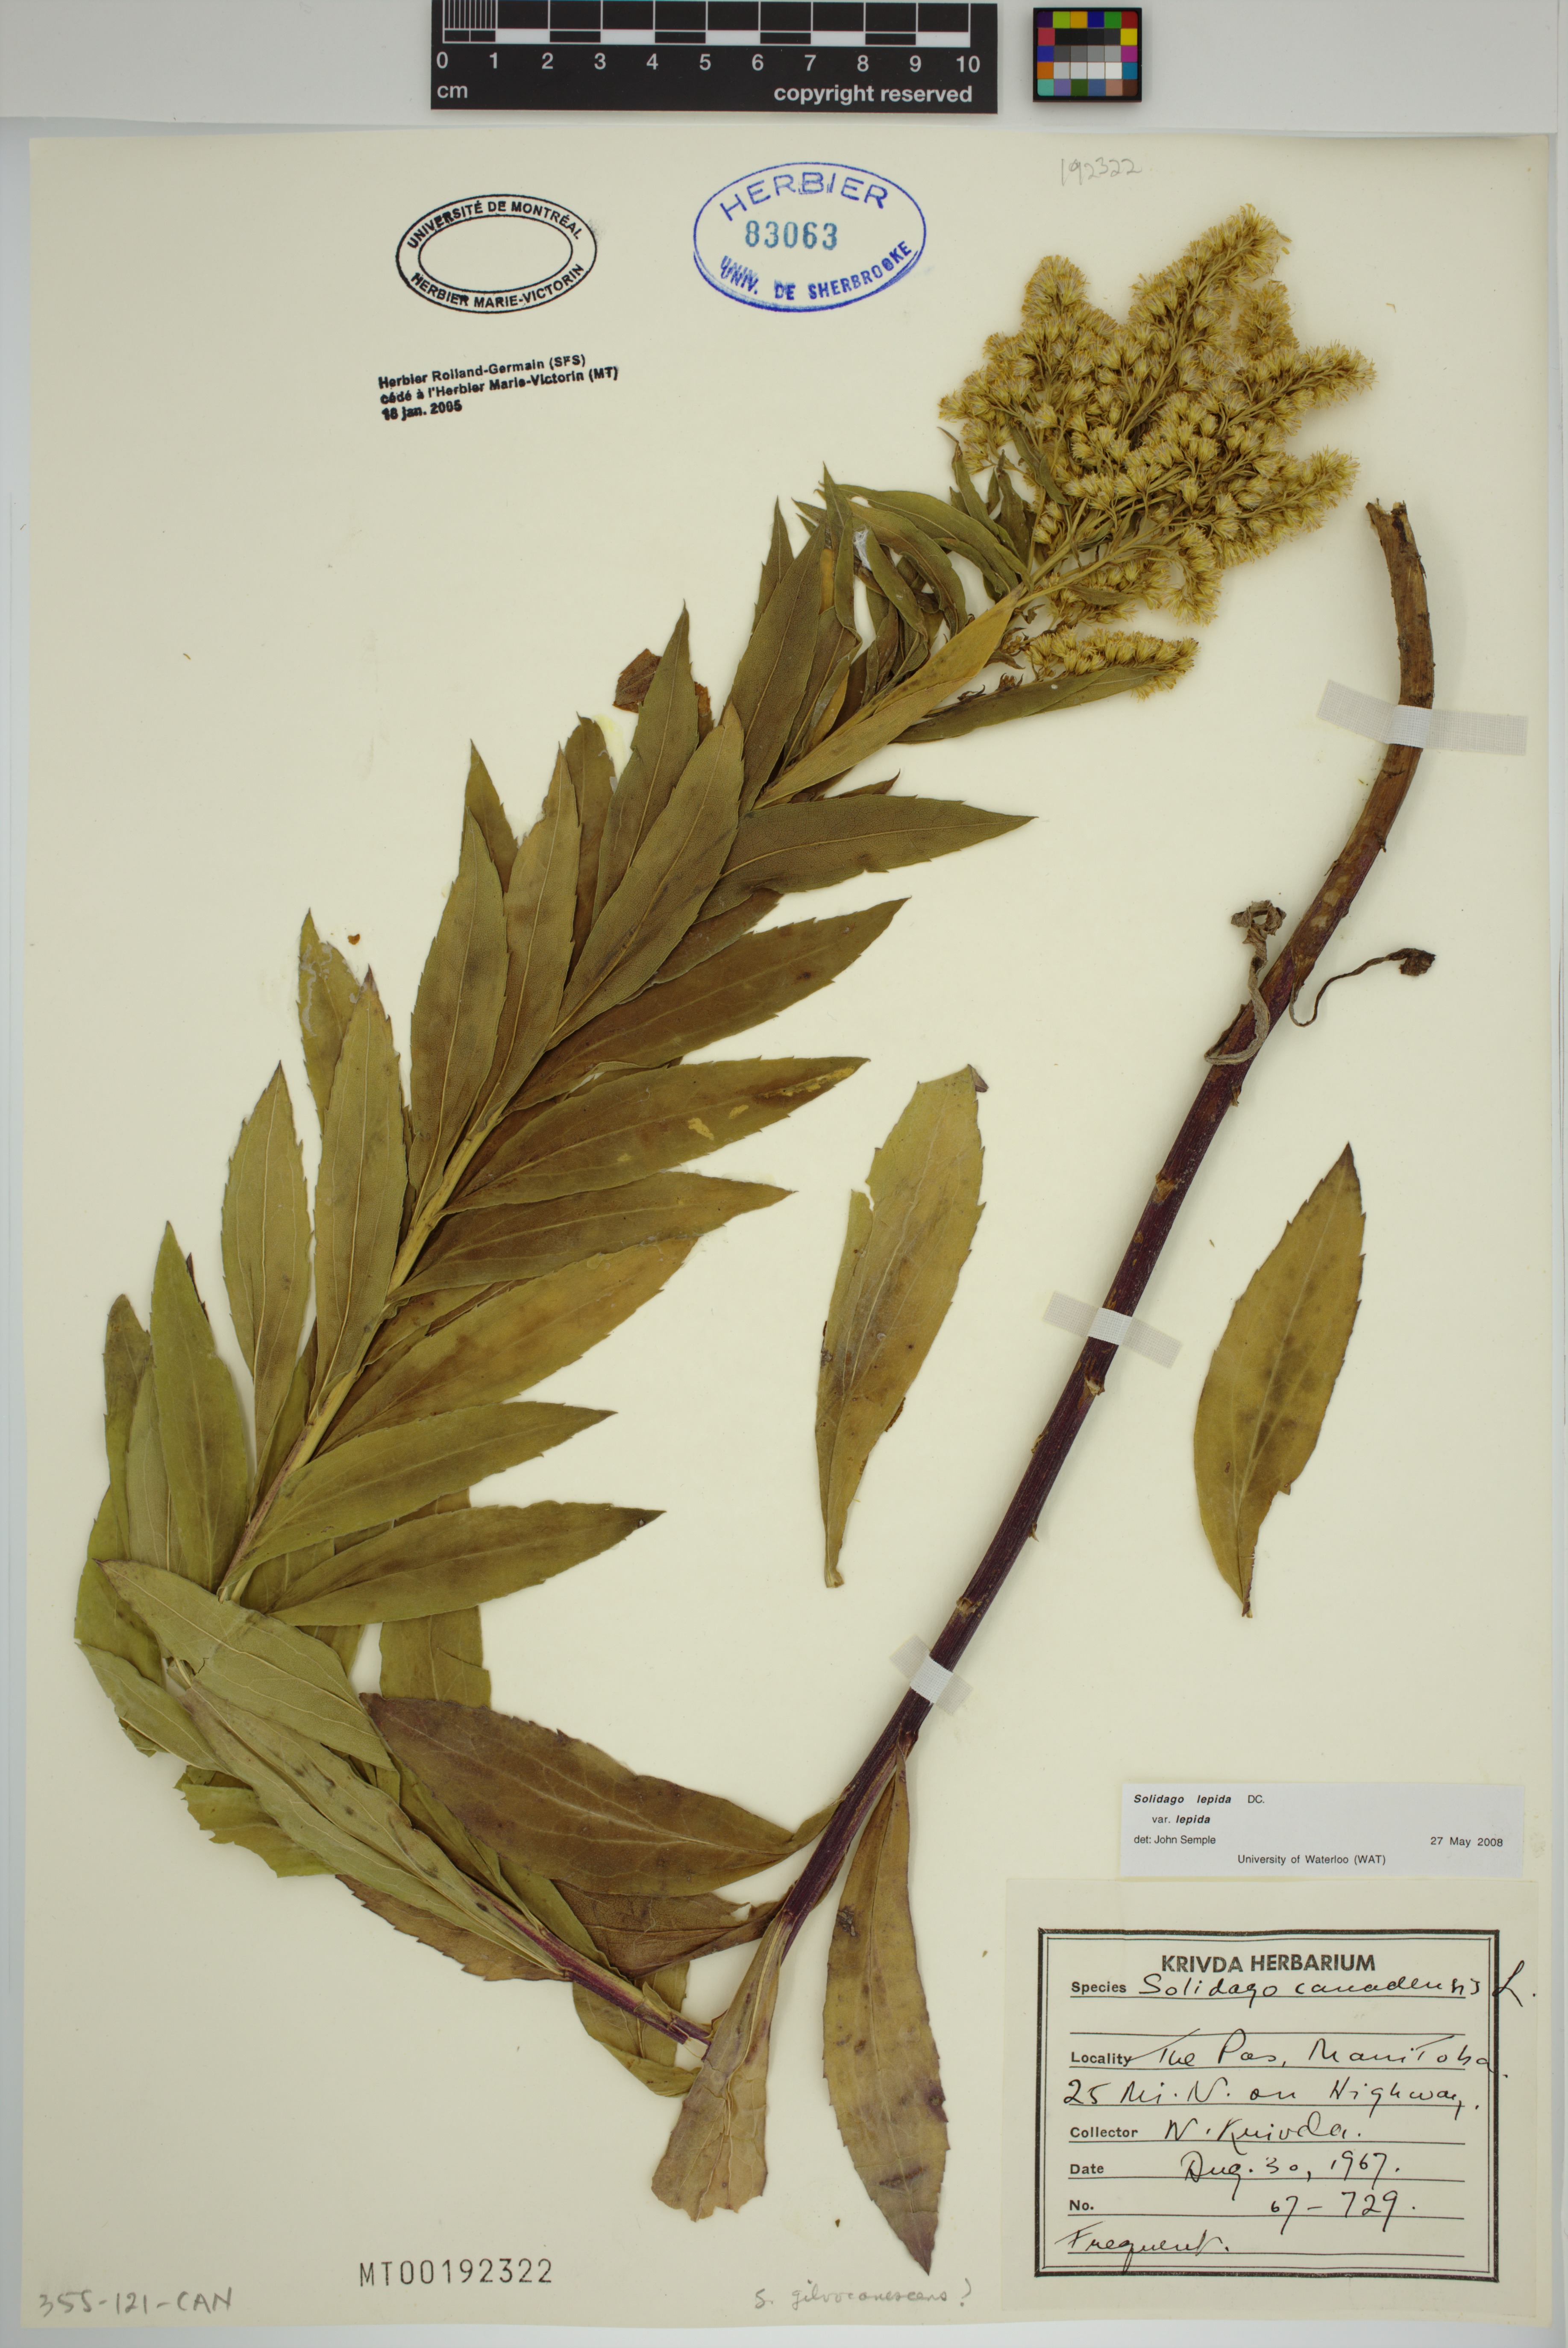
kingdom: Plantae
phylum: Tracheophyta
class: Magnoliopsida
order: Asterales
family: Asteraceae
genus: Solidago
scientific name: Solidago lepida
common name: Western canada goldenrod
